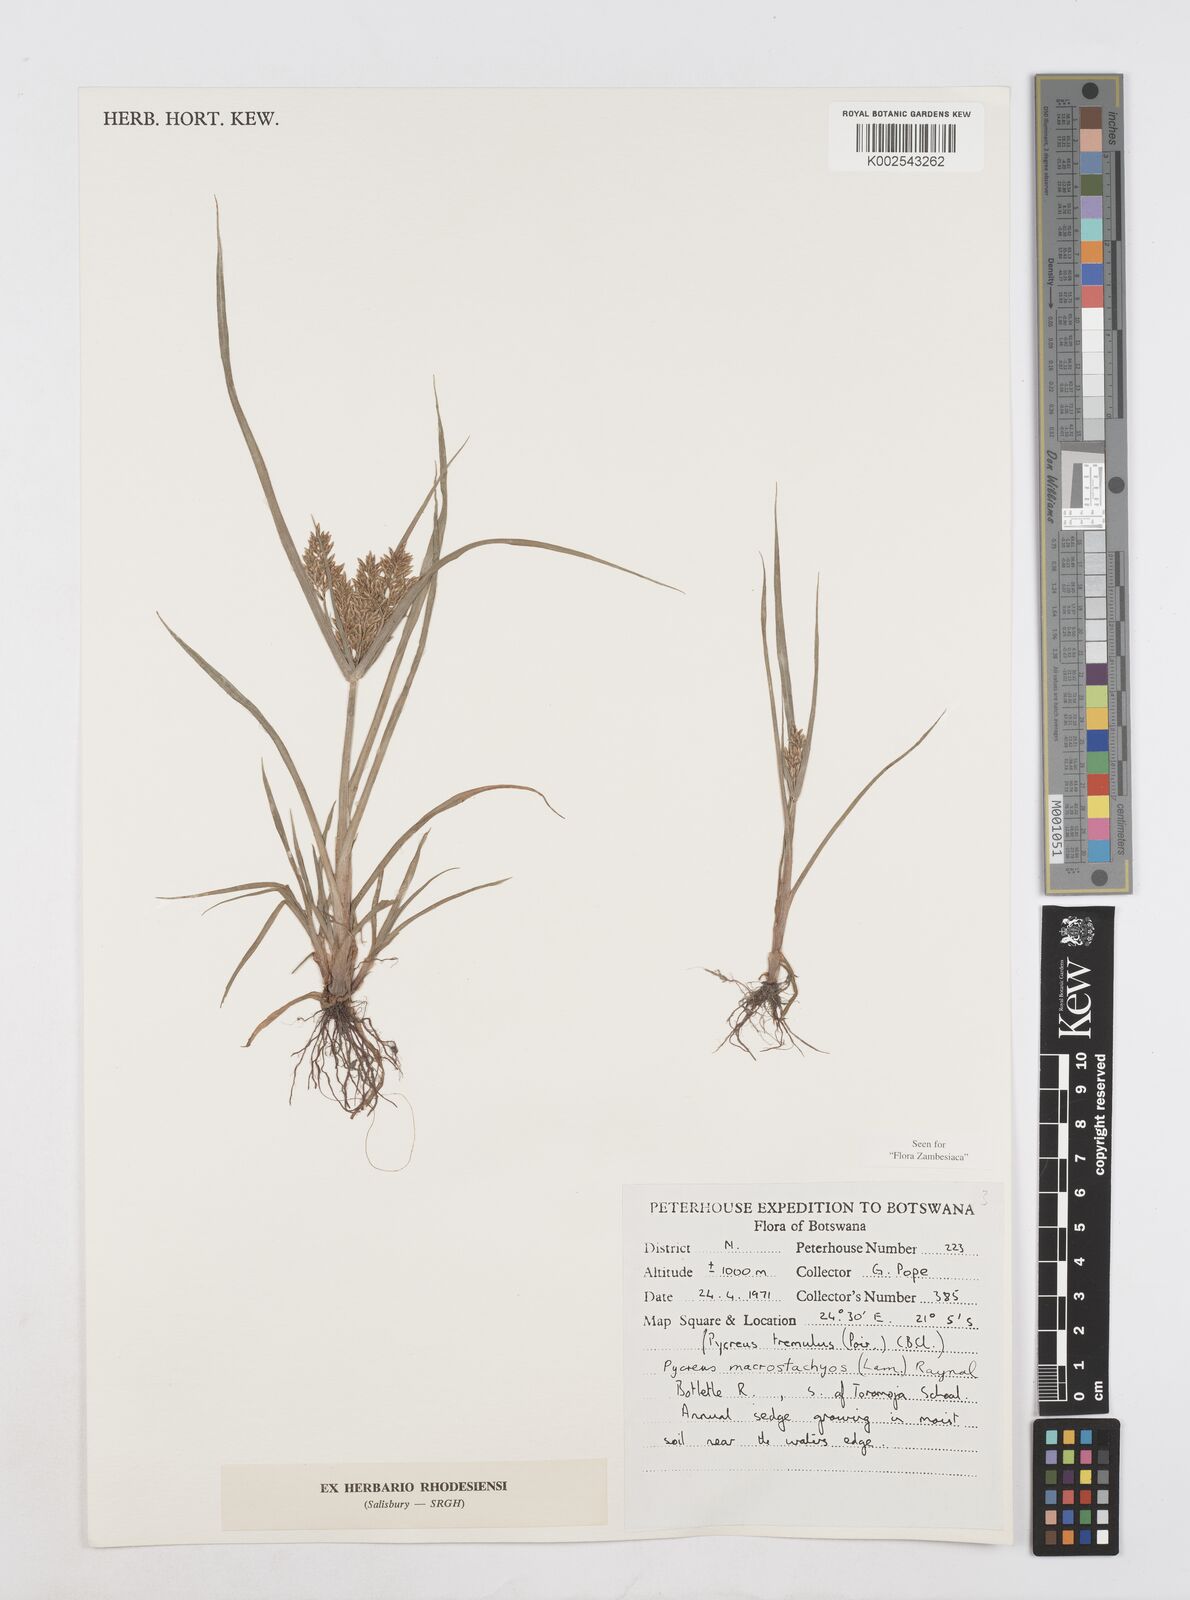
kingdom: Plantae
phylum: Tracheophyta
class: Liliopsida
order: Poales
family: Cyperaceae
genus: Cyperus
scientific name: Cyperus macrostachyos
